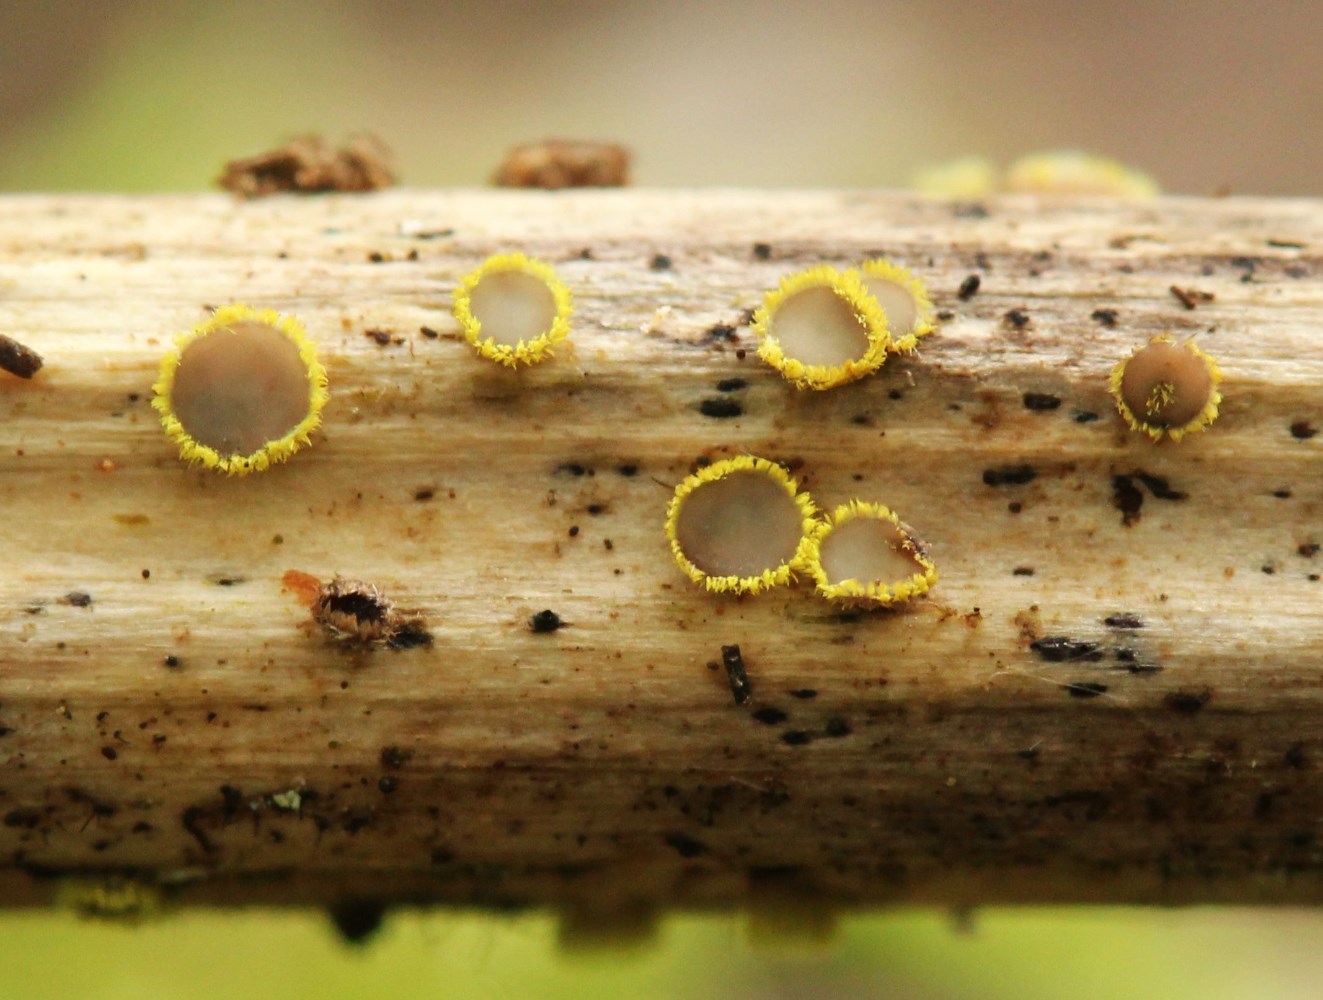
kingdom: Fungi
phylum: Ascomycota
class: Leotiomycetes
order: Helotiales
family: Lachnaceae
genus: Lachnum
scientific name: Lachnum sulphureum
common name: svovlhåret frynseskive
